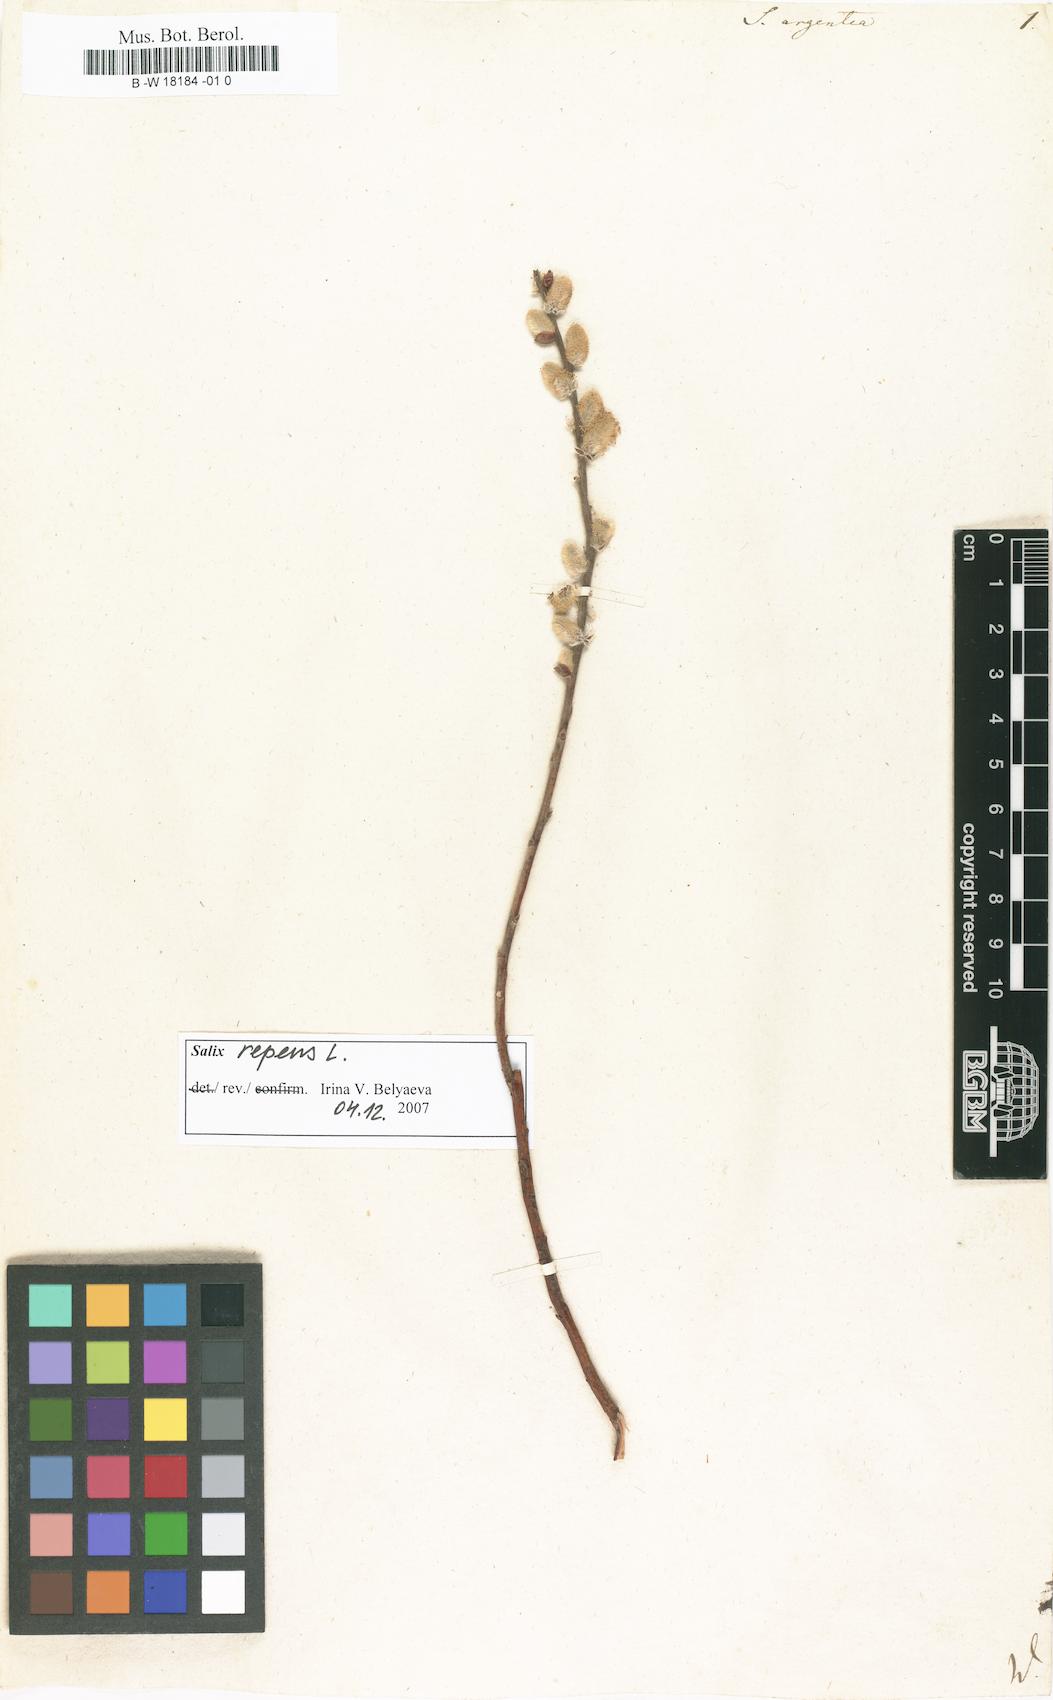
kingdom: Plantae
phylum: Tracheophyta
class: Magnoliopsida
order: Malpighiales
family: Salicaceae
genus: Salix
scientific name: Salix repens
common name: Creeping willow
